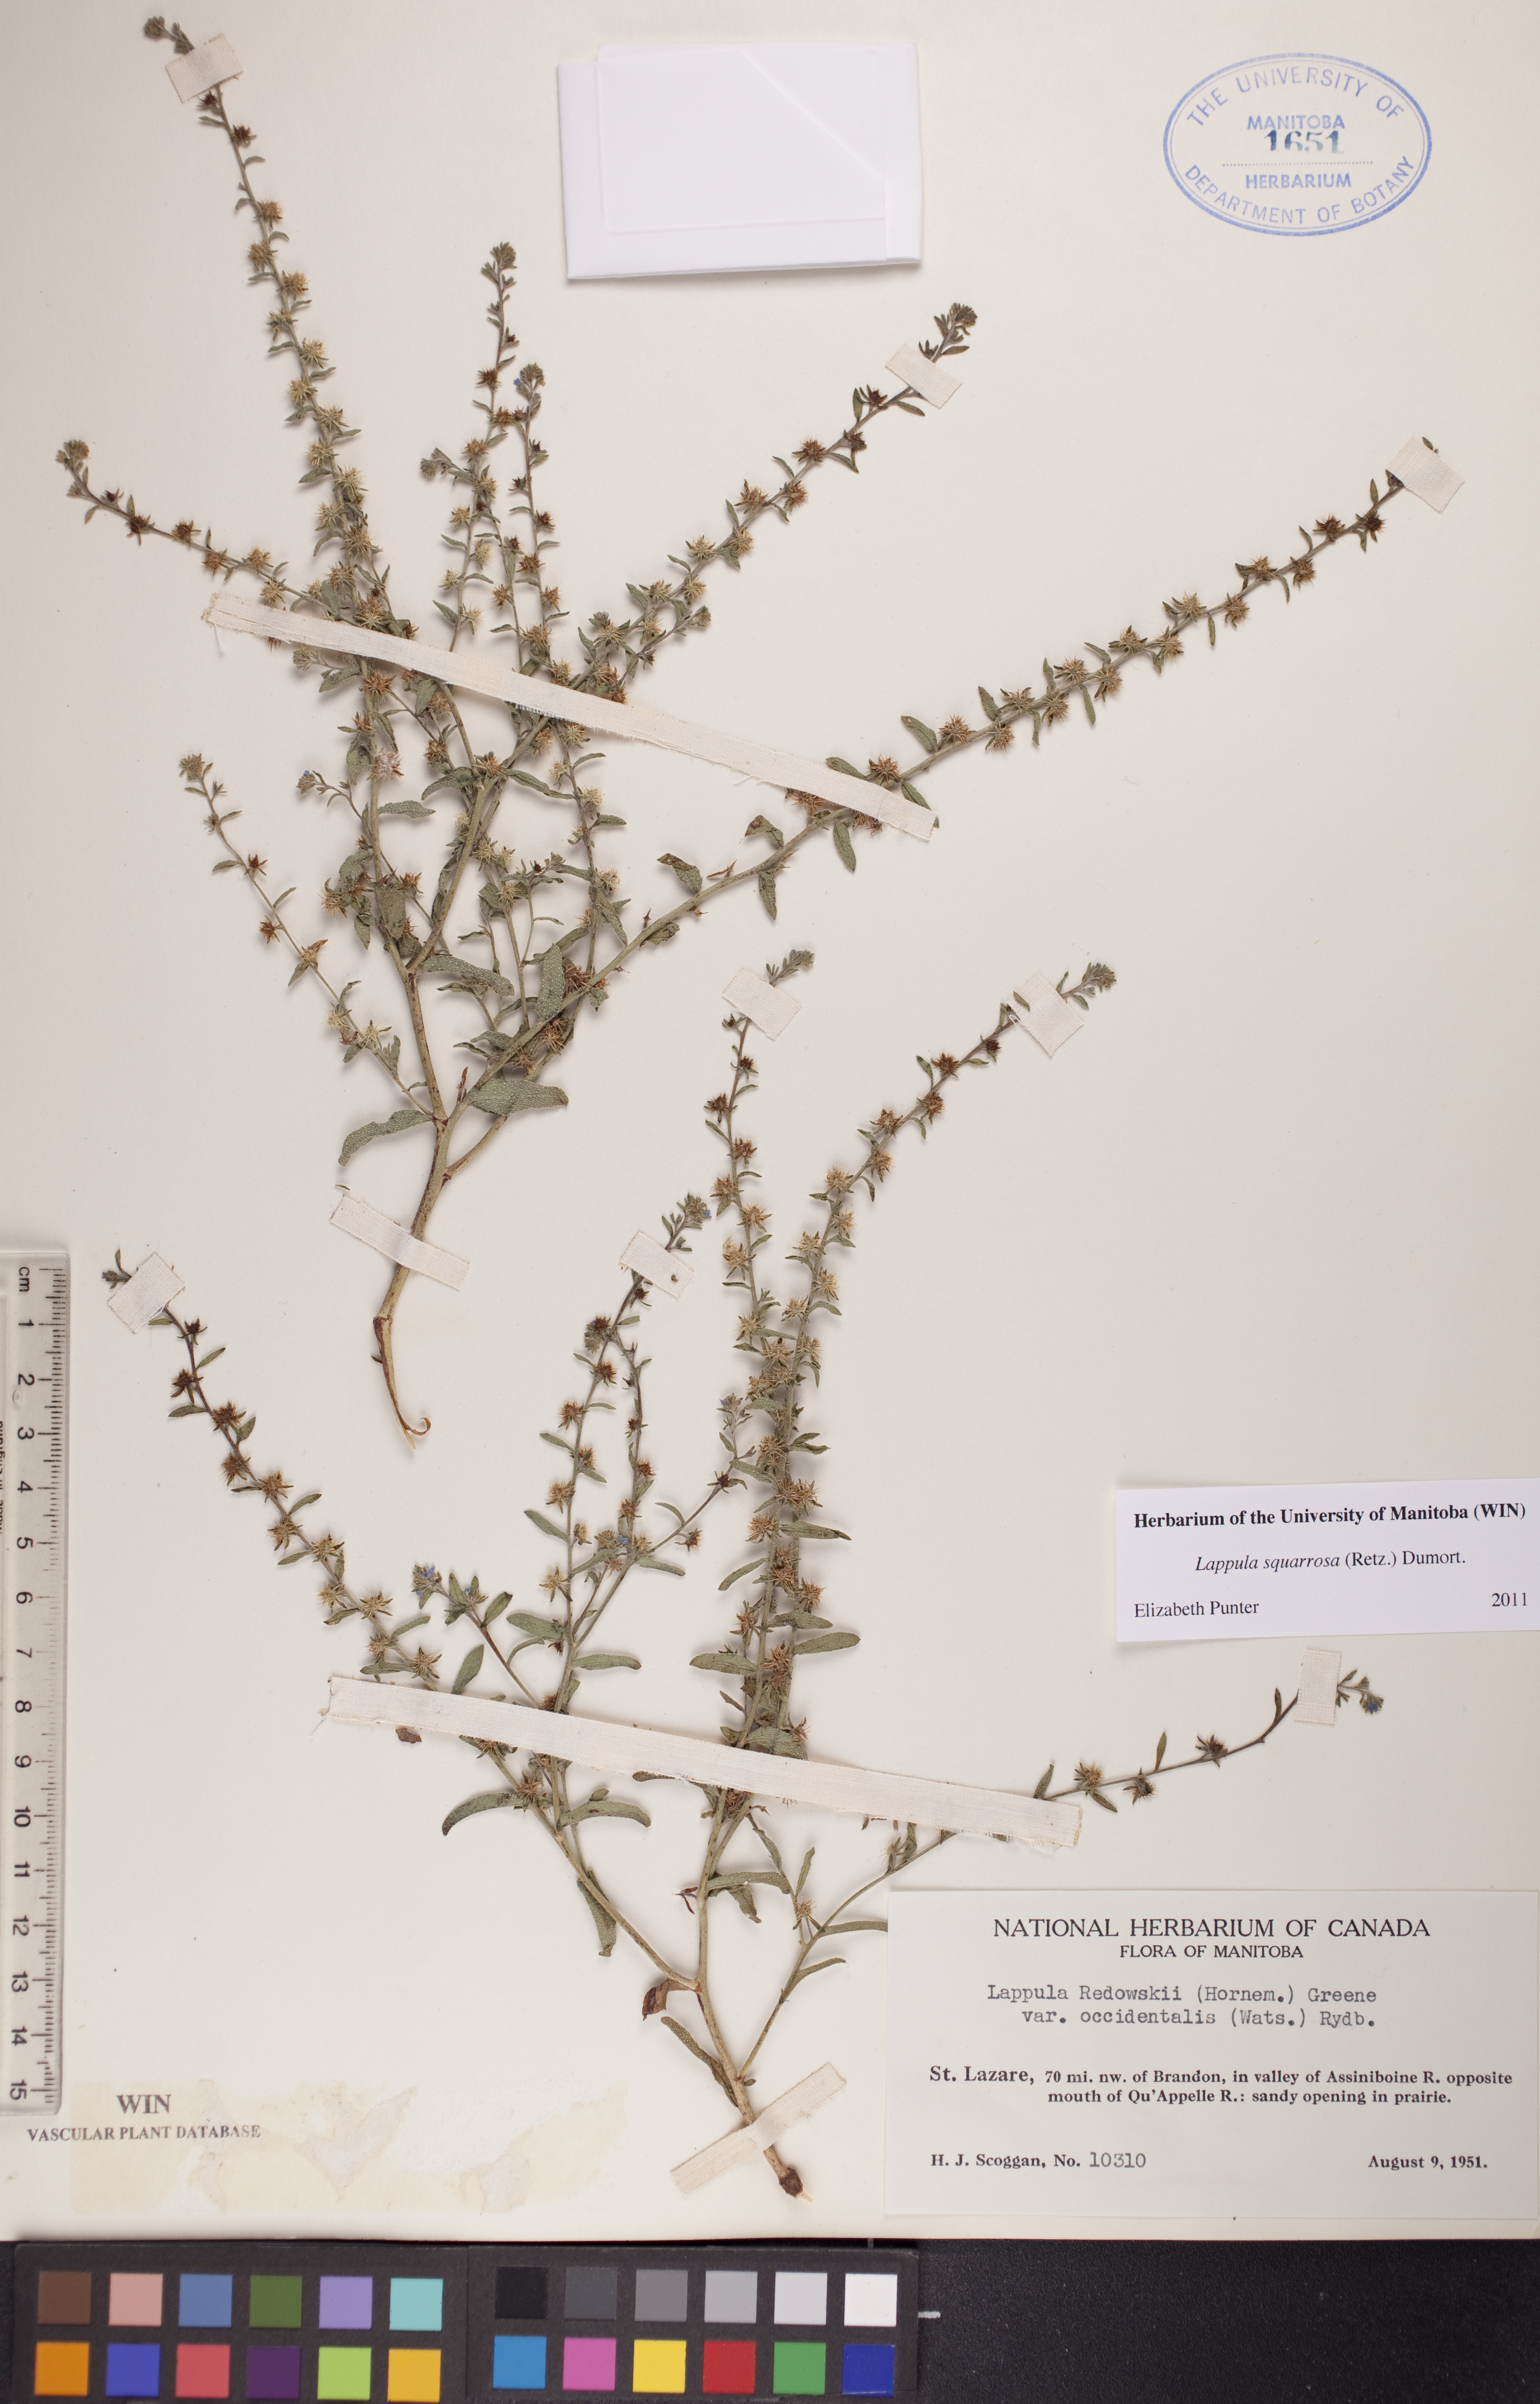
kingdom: Plantae
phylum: Tracheophyta
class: Magnoliopsida
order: Boraginales
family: Boraginaceae
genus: Lappula
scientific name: Lappula squarrosa
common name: European stickseed
